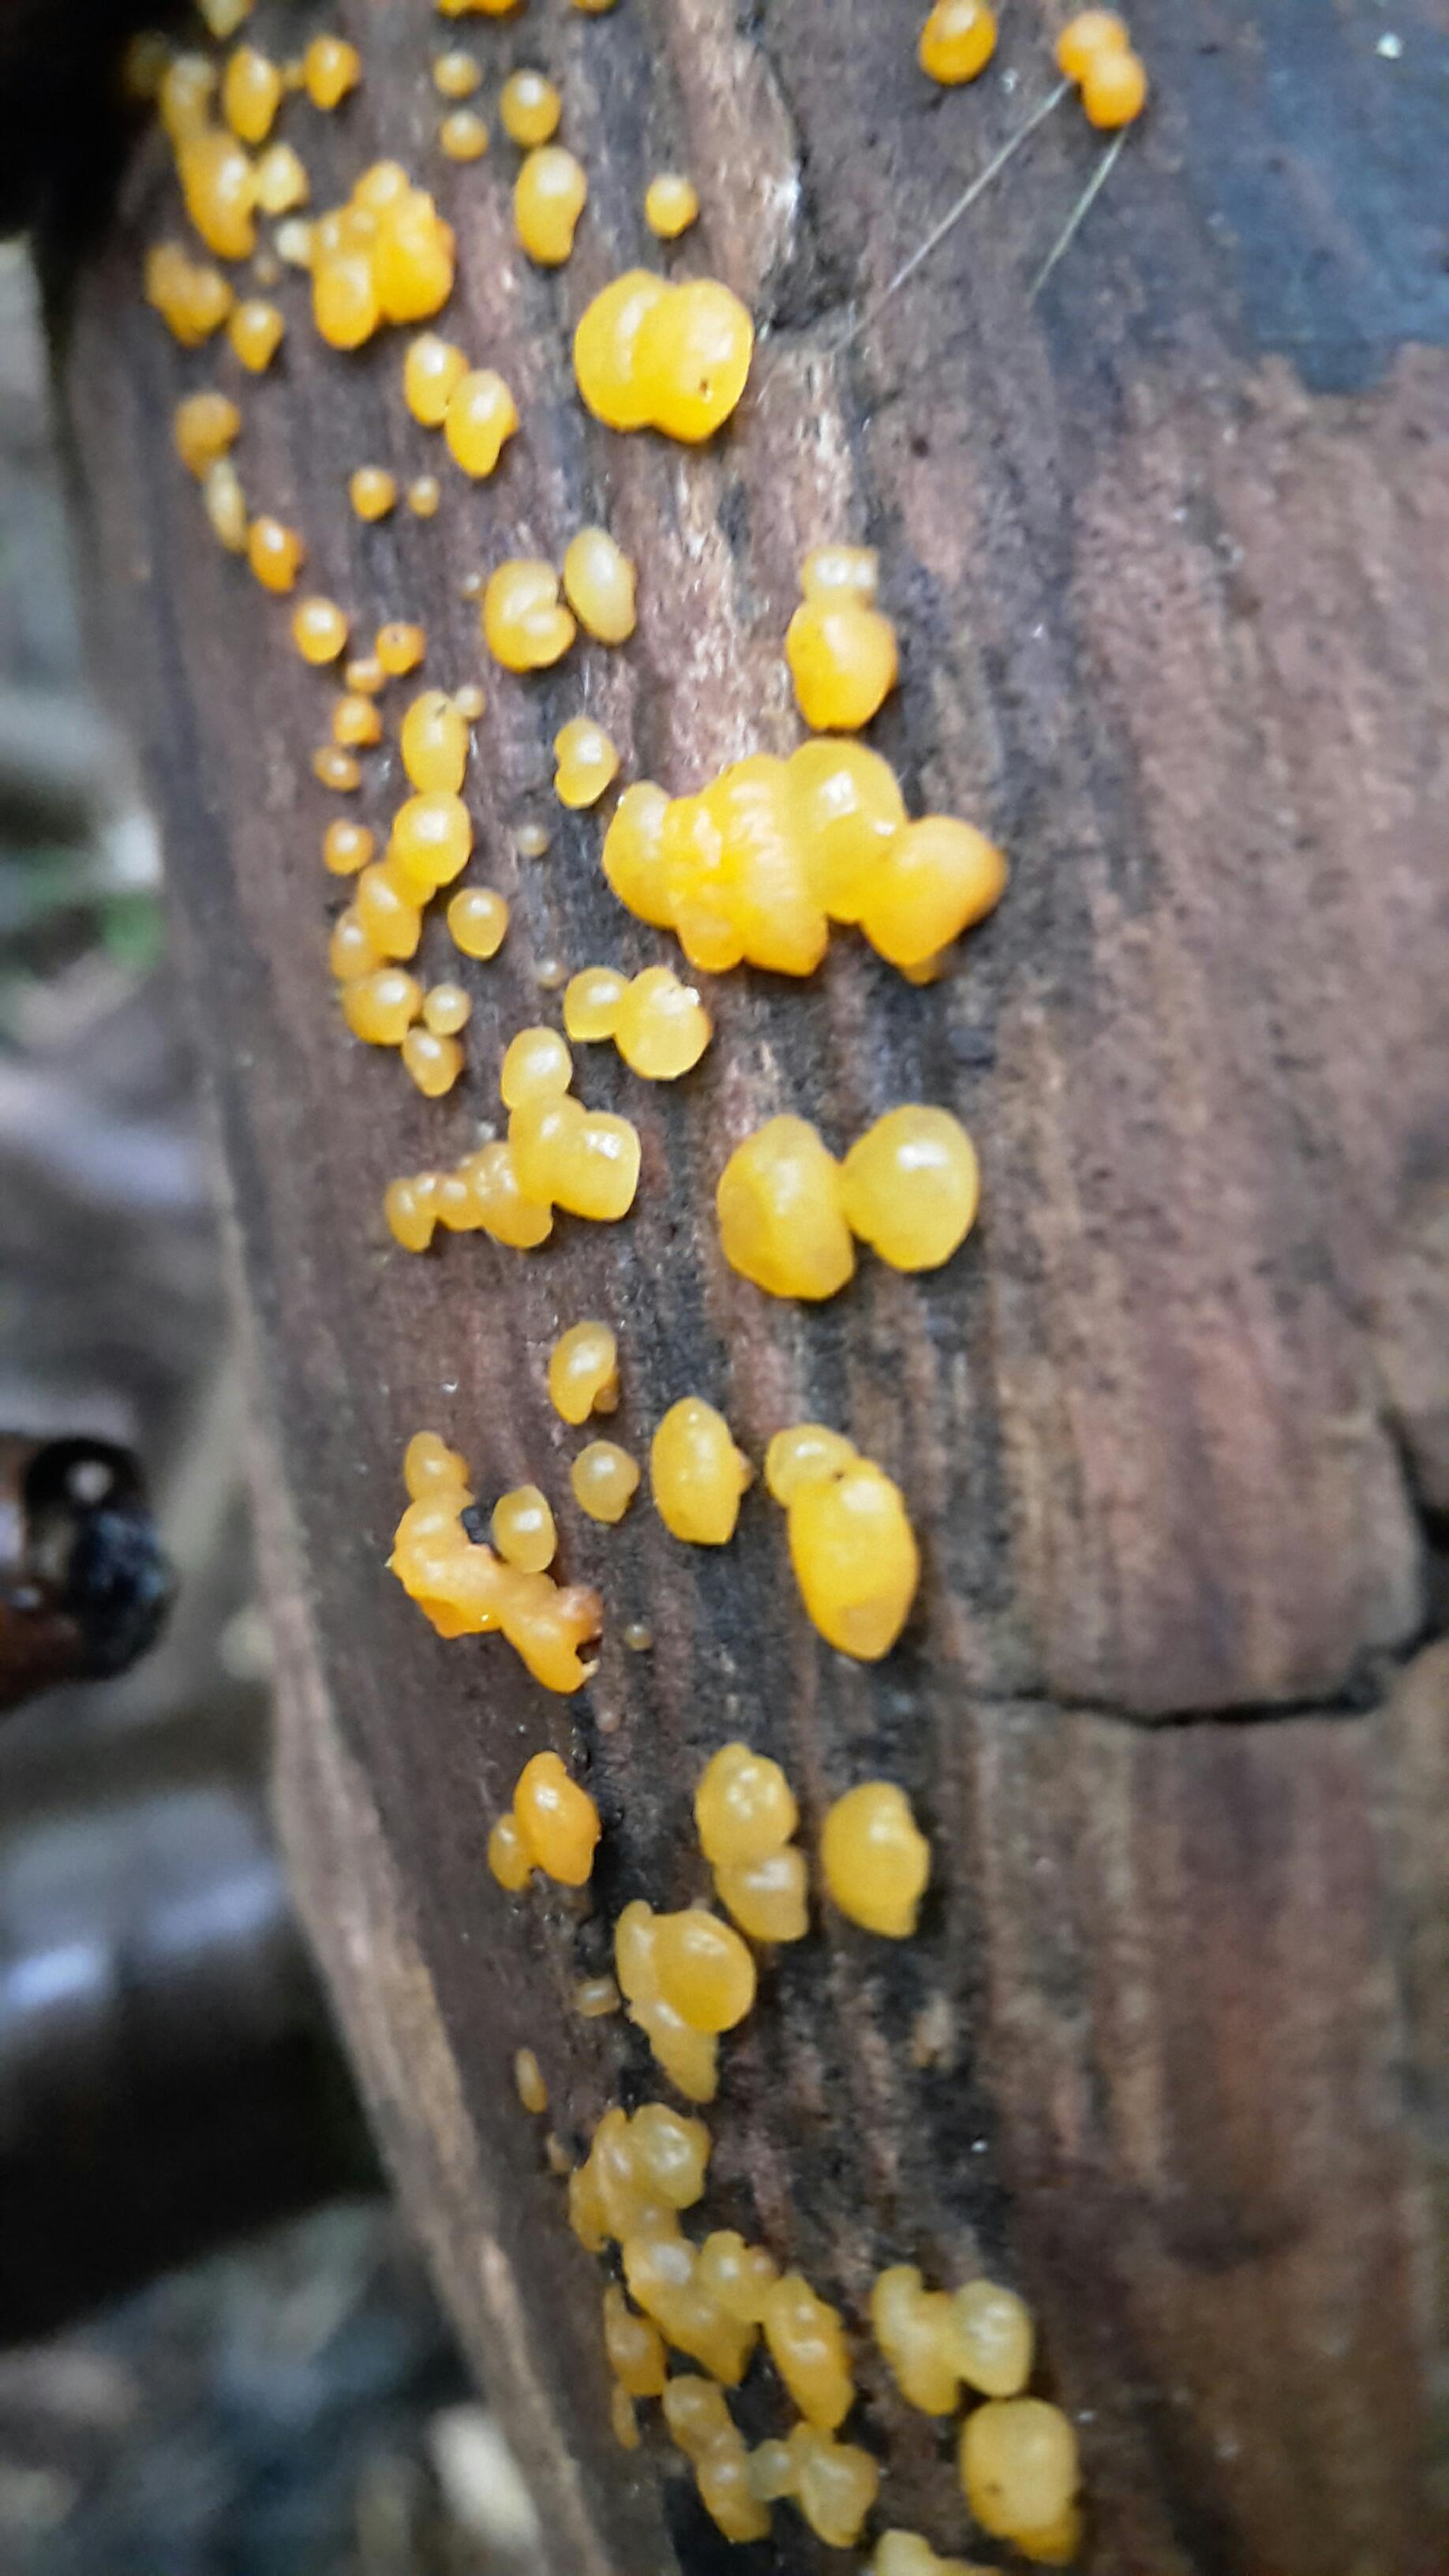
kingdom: Fungi
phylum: Basidiomycota
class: Dacrymycetes
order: Dacrymycetales
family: Dacrymycetaceae
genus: Dacrymyces
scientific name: Dacrymyces lacrymalis
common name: rynket tåresvamp
